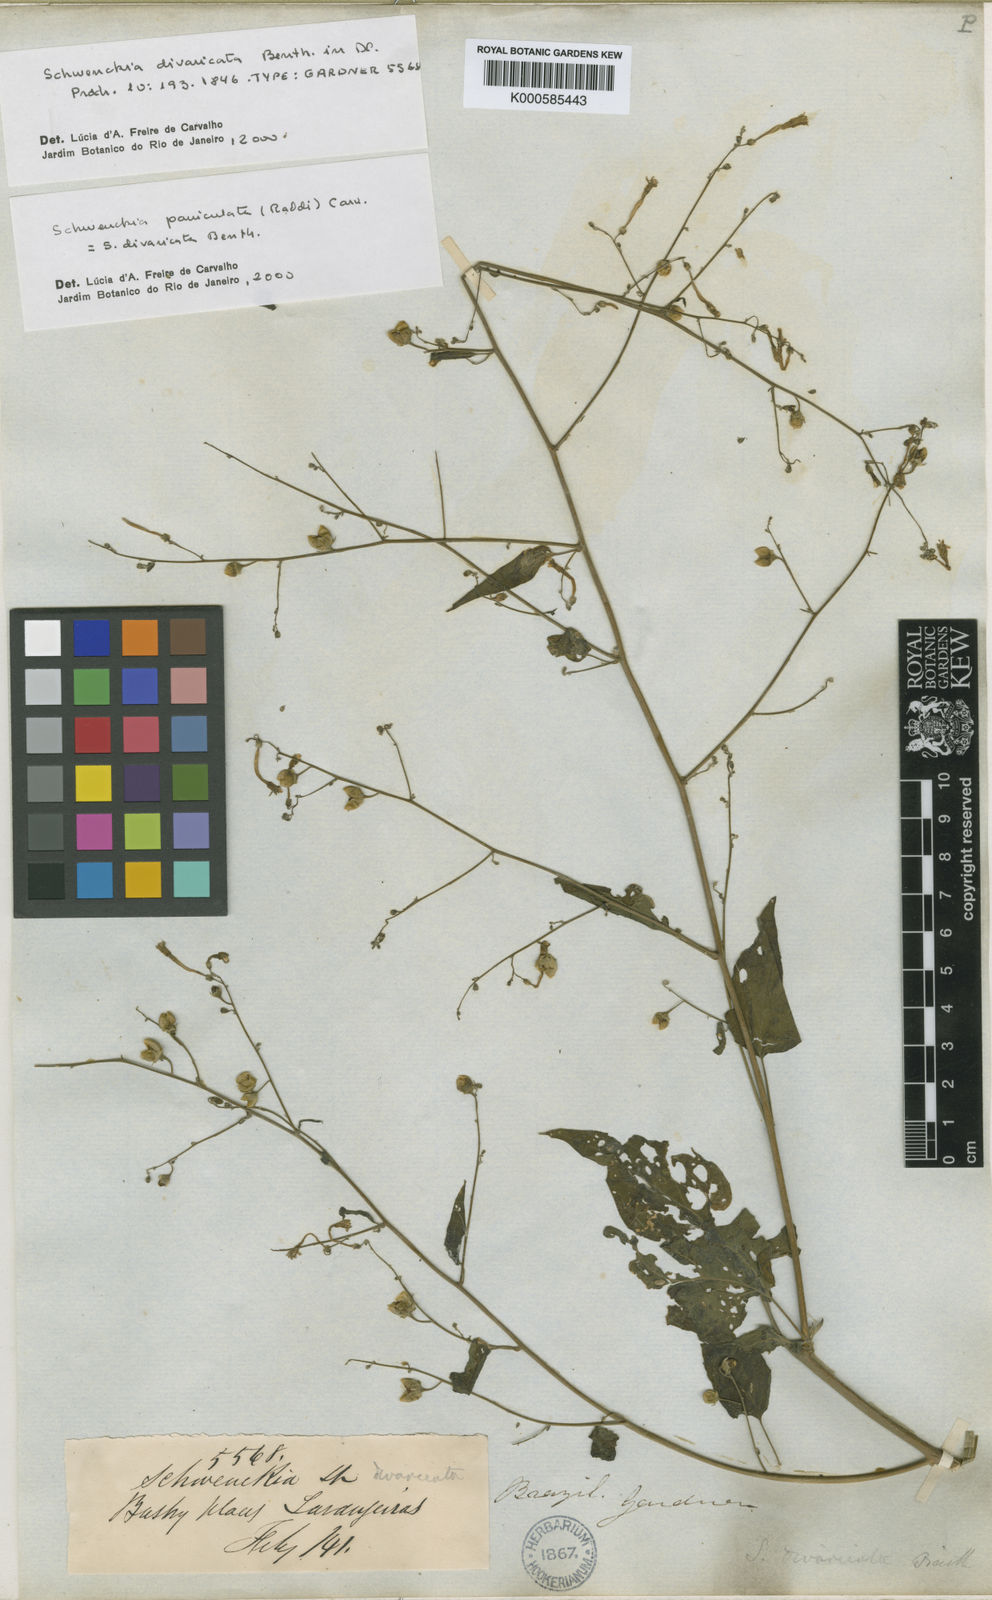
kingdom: Plantae
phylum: Tracheophyta
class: Magnoliopsida
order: Solanales
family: Solanaceae
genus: Schwenckia
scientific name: Schwenckia paniculata
